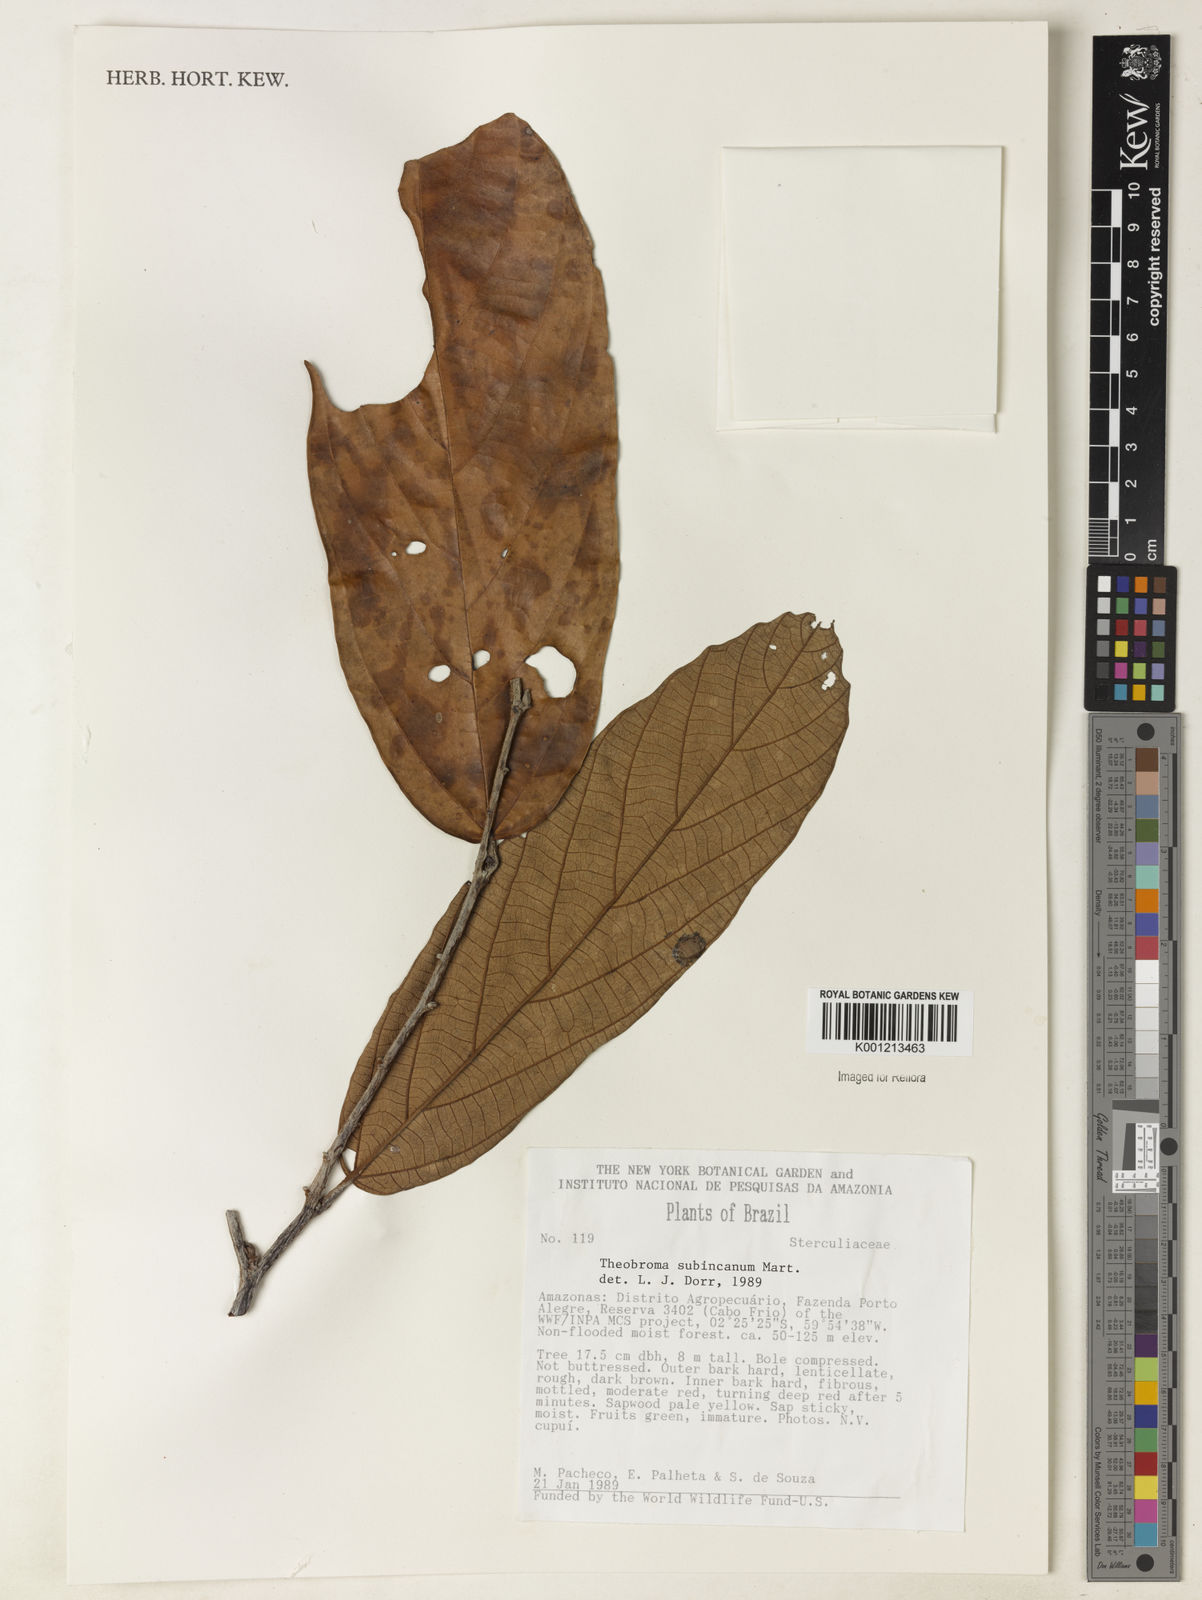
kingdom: Plantae
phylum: Tracheophyta
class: Magnoliopsida
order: Malvales
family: Malvaceae
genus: Theobroma
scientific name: Theobroma subincanum
